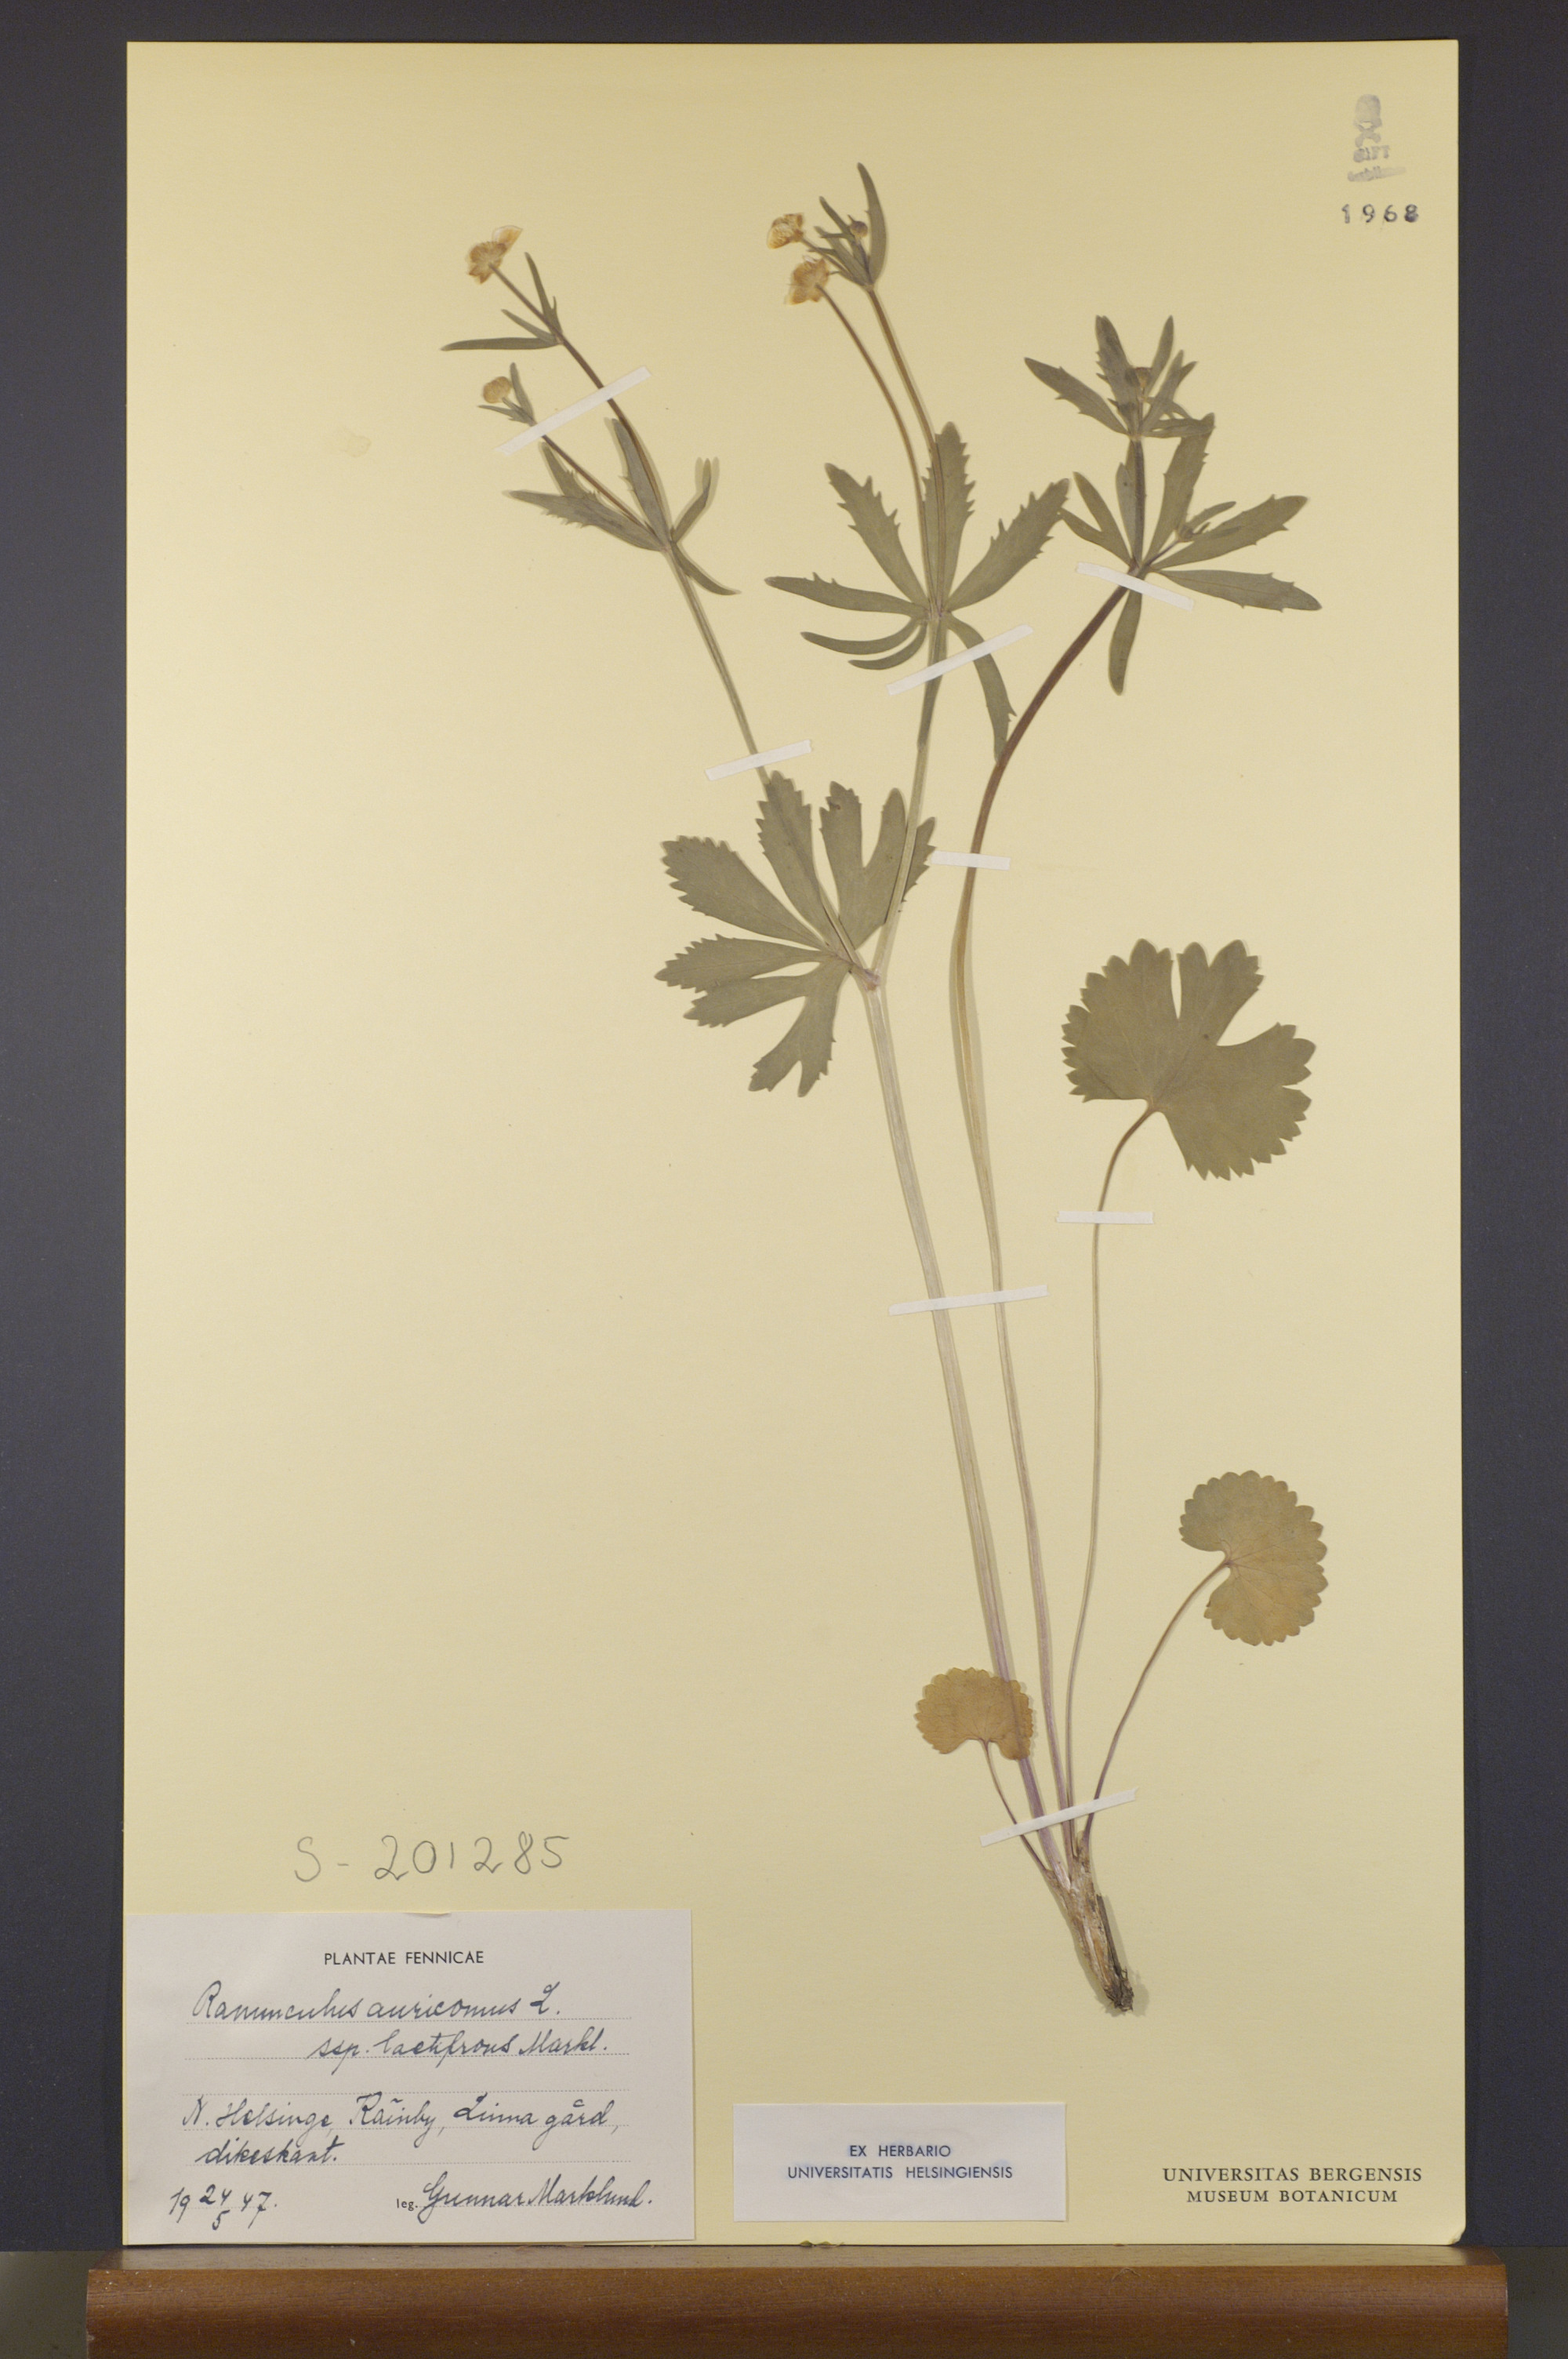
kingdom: Plantae
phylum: Tracheophyta
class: Magnoliopsida
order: Ranunculales
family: Ranunculaceae
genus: Ranunculus
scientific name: Ranunculus latifrons
